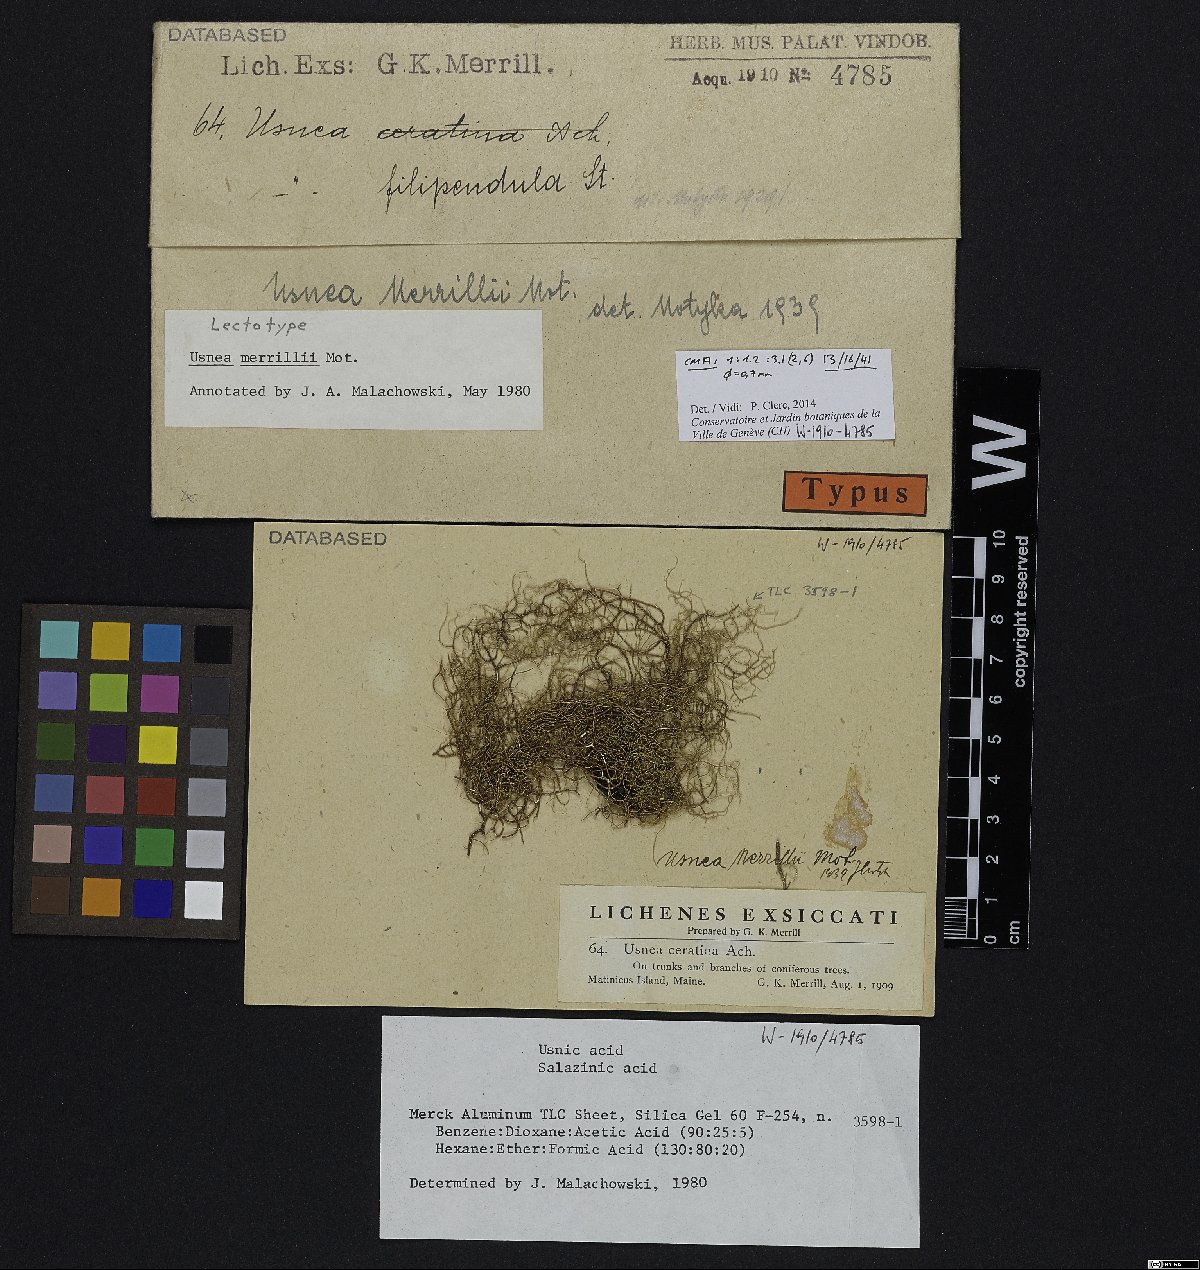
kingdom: Fungi
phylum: Ascomycota
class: Lecanoromycetes
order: Lecanorales
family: Parmeliaceae
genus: Usnea
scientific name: Usnea merrillii
